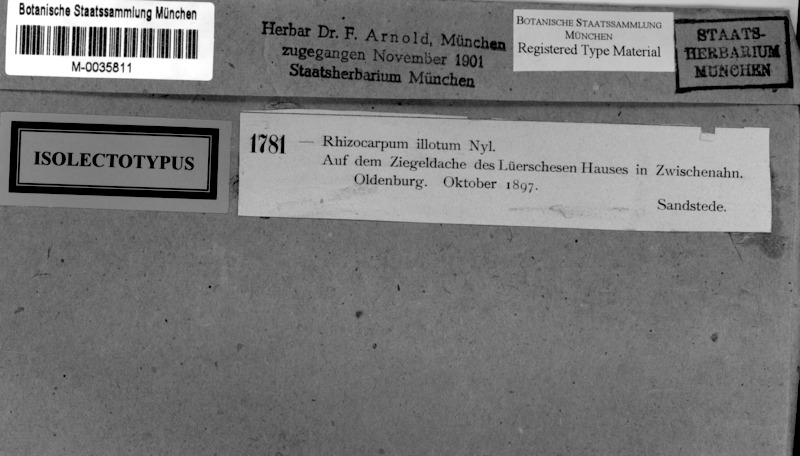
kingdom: Fungi
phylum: Ascomycota
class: Lecanoromycetes
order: Rhizocarpales
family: Rhizocarpaceae
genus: Rhizocarpon
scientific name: Rhizocarpon distinctum
